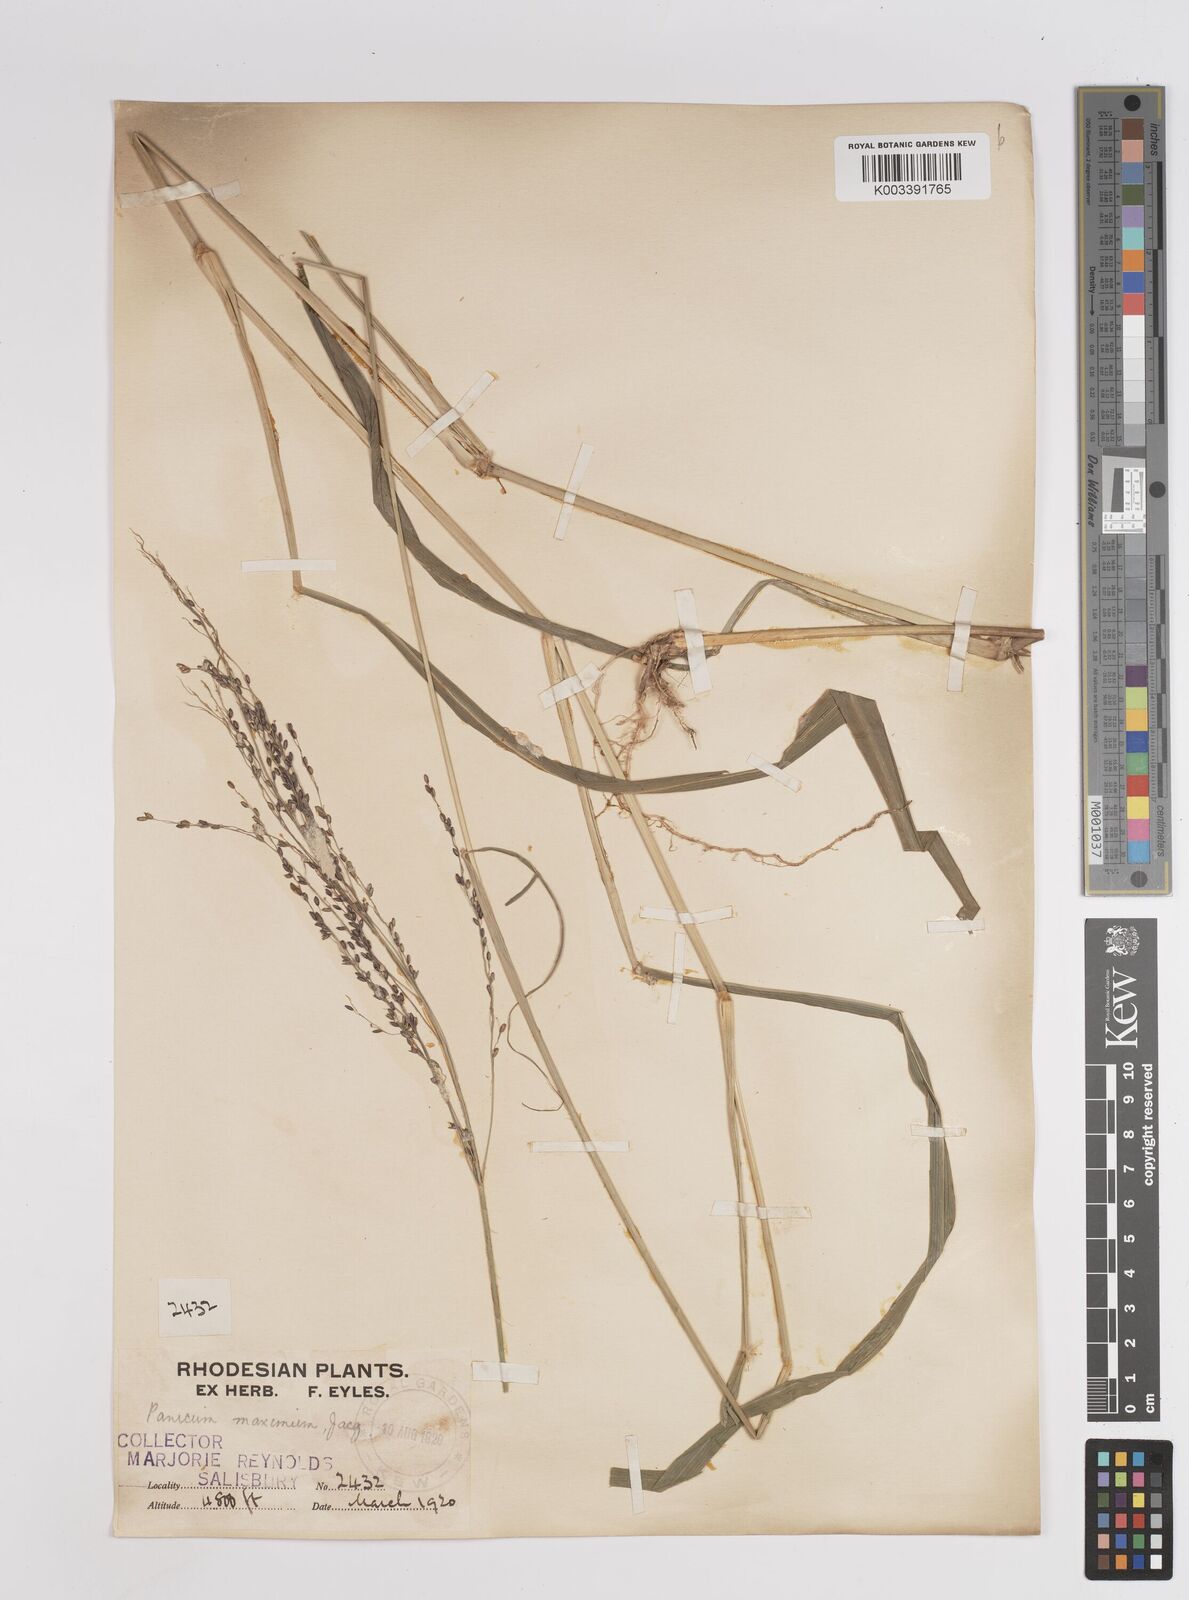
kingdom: Plantae
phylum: Tracheophyta
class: Liliopsida
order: Poales
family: Poaceae
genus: Megathyrsus
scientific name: Megathyrsus maximus
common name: Guineagrass
